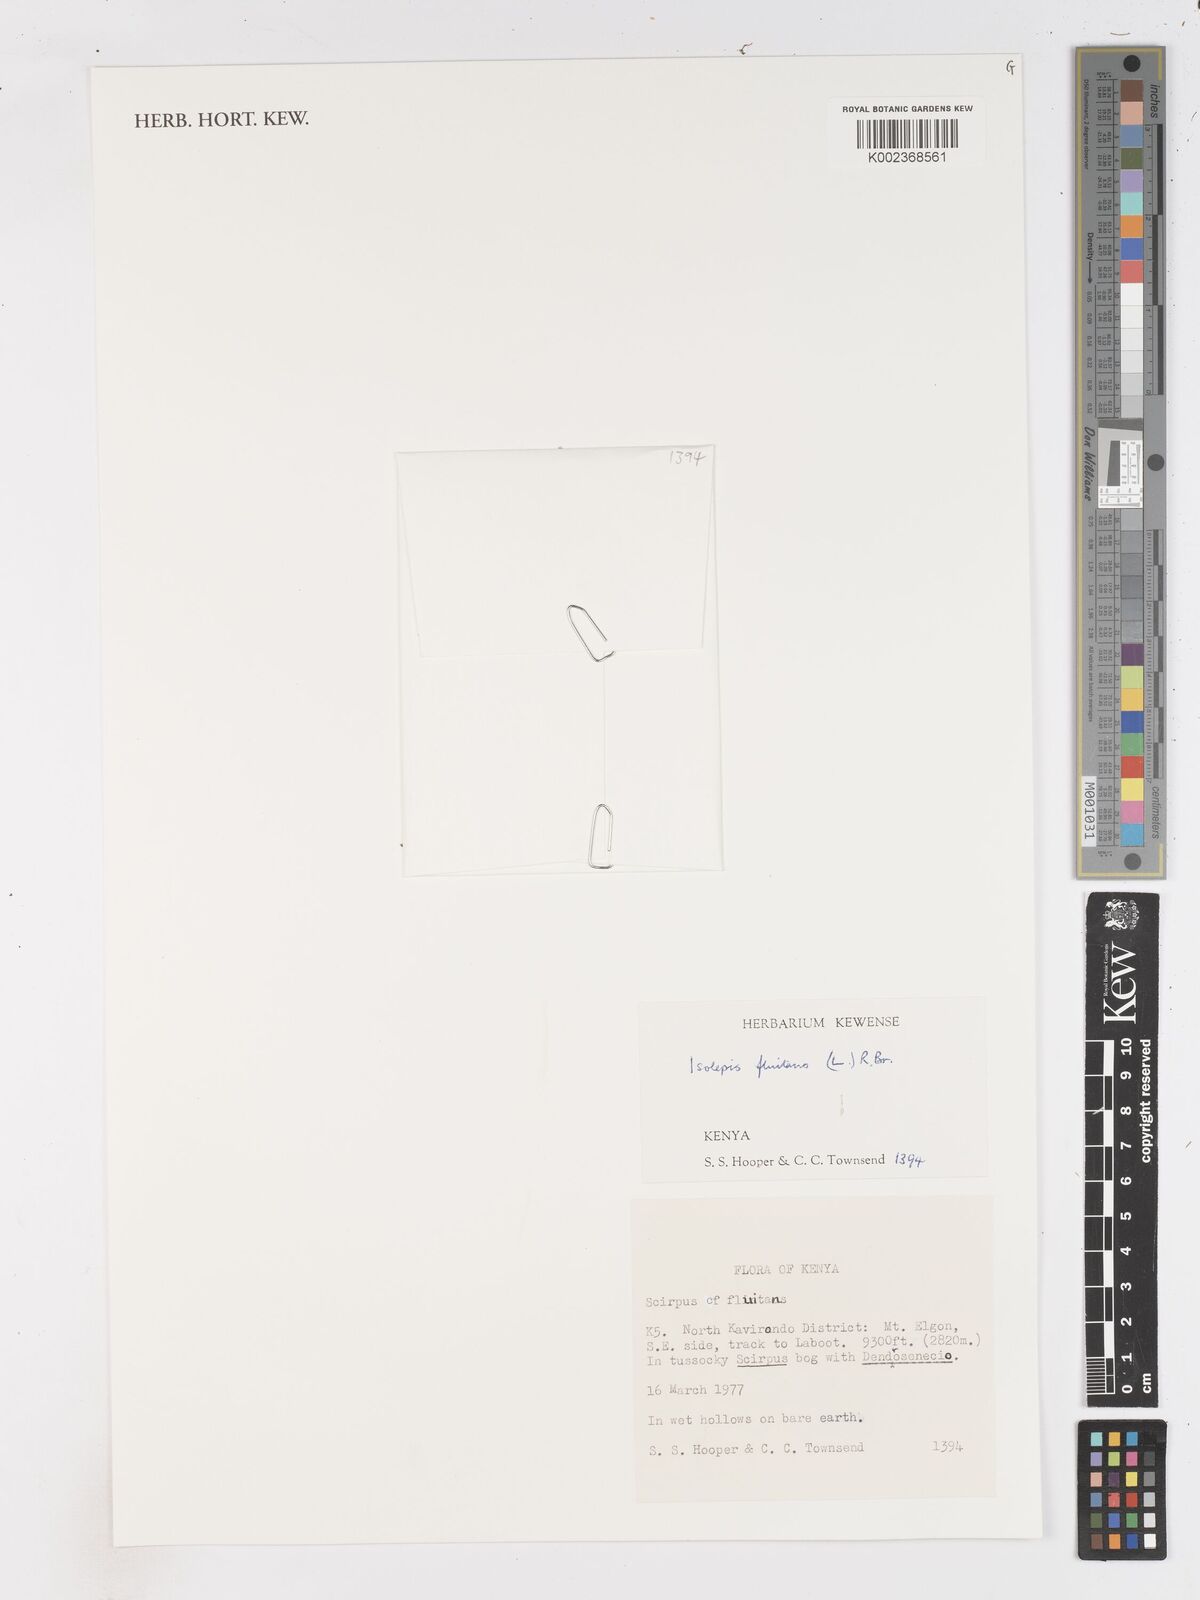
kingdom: Plantae
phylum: Tracheophyta
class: Liliopsida
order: Poales
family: Cyperaceae
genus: Isolepis
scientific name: Isolepis fluitans
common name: Floating club-rush
